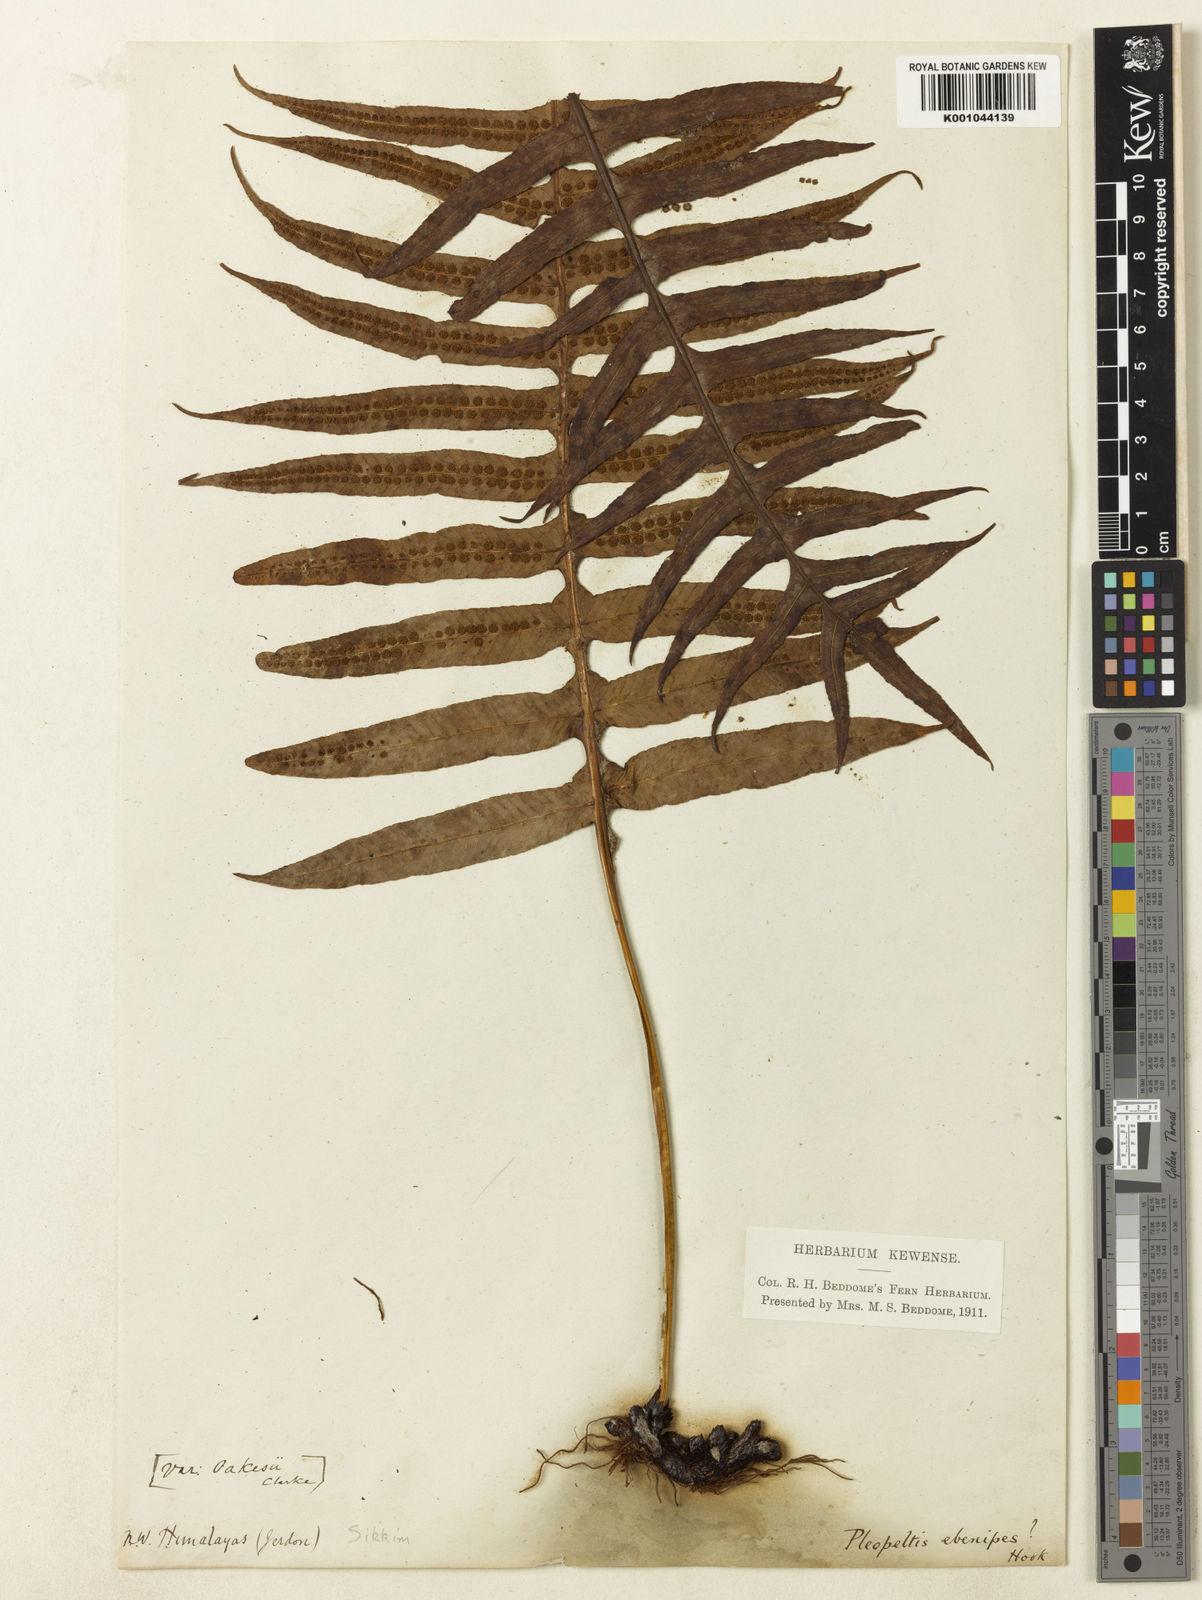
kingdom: Plantae
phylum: Tracheophyta
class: Polypodiopsida
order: Polypodiales
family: Polypodiaceae
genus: Selliguea
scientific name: Selliguea ebenipes
